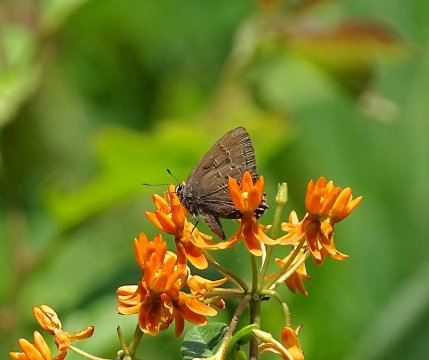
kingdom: Animalia
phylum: Arthropoda
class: Insecta
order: Lepidoptera
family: Lycaenidae
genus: Satyrium
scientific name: Satyrium calanus
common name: Banded Hairstreak
